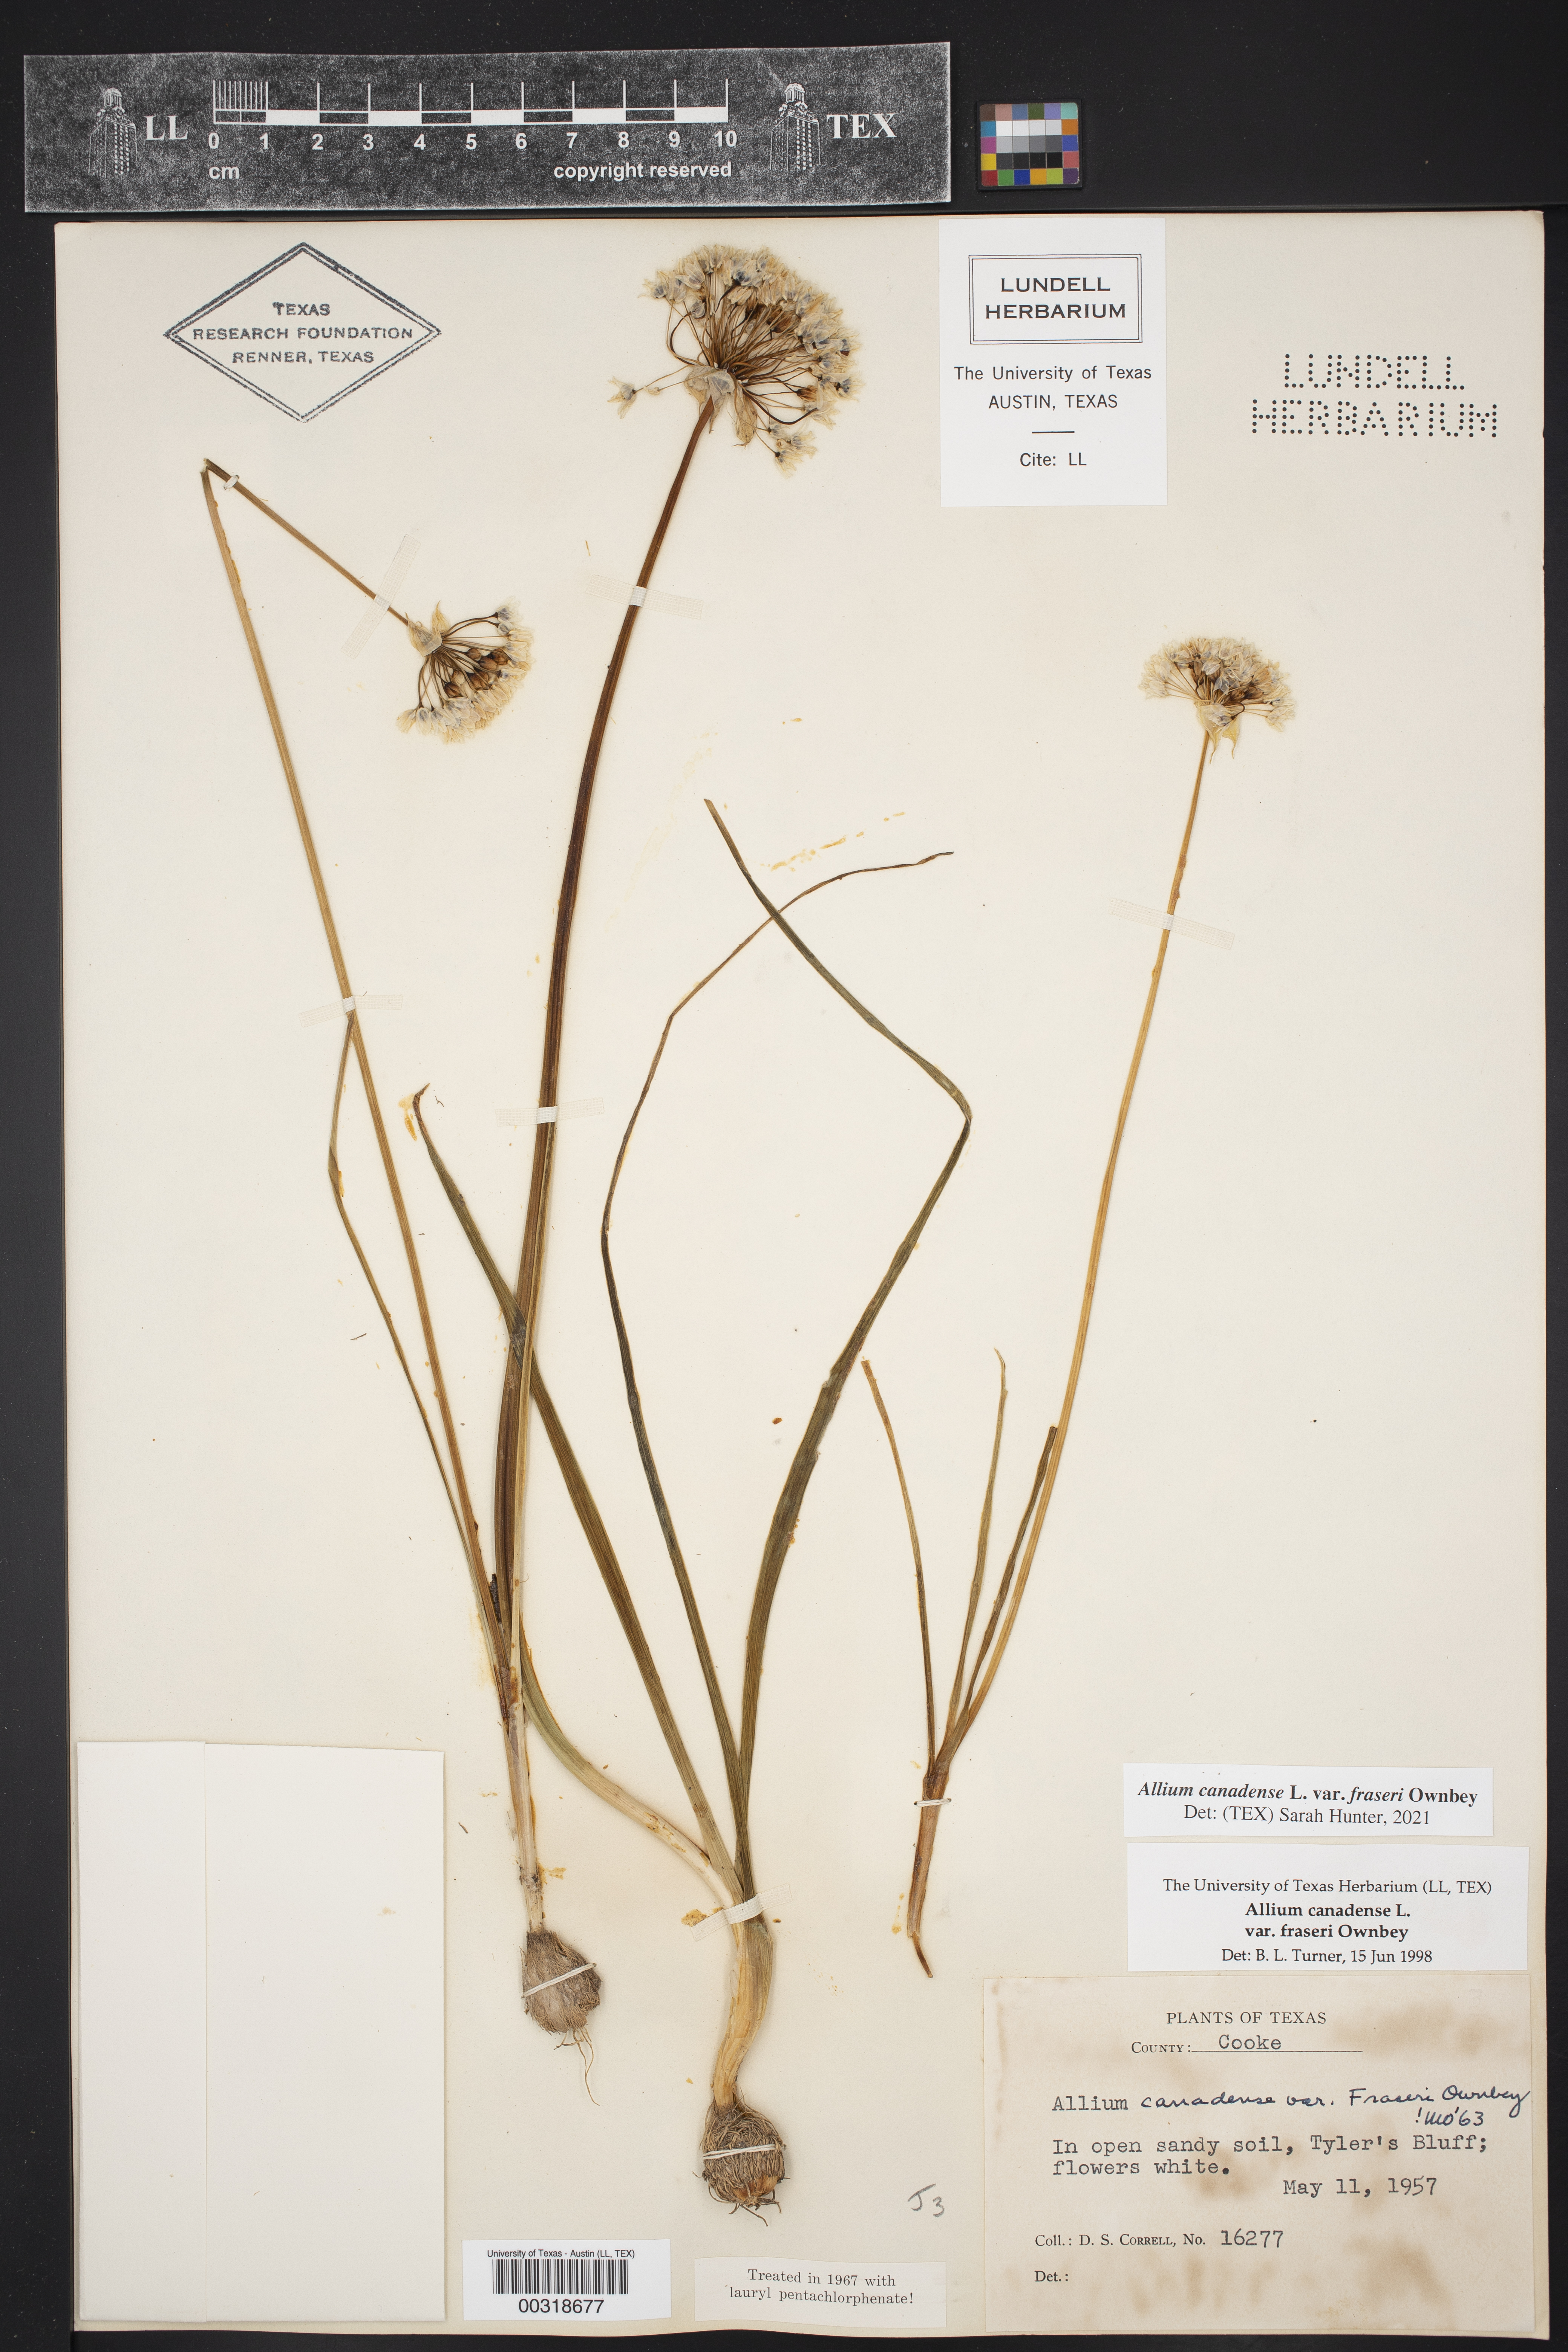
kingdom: Plantae
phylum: Tracheophyta
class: Liliopsida
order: Asparagales
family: Amaryllidaceae
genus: Allium
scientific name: Allium canadense
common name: Meadow garlic
